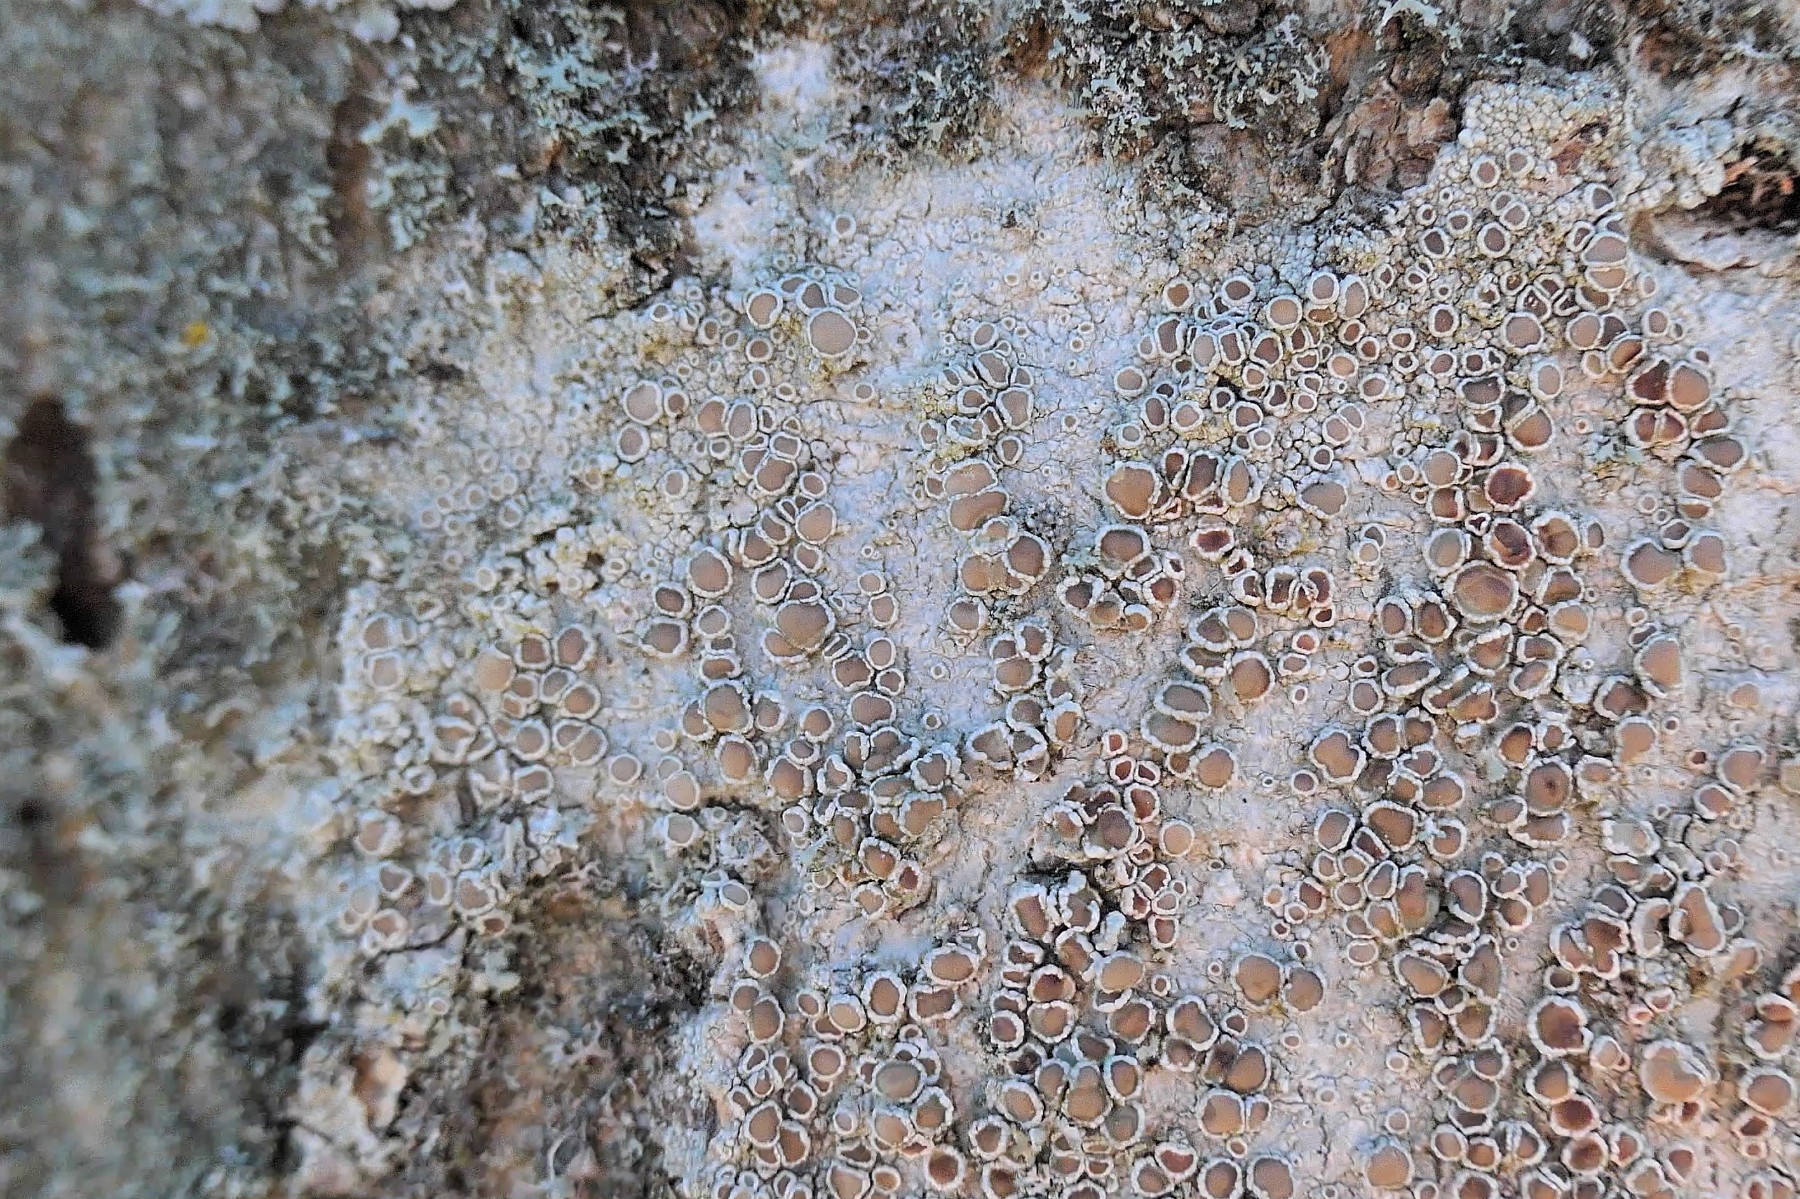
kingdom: Fungi
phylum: Ascomycota
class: Lecanoromycetes
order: Lecanorales
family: Lecanoraceae
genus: Lecanora
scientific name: Lecanora chlarotera
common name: brun kantskivelav
